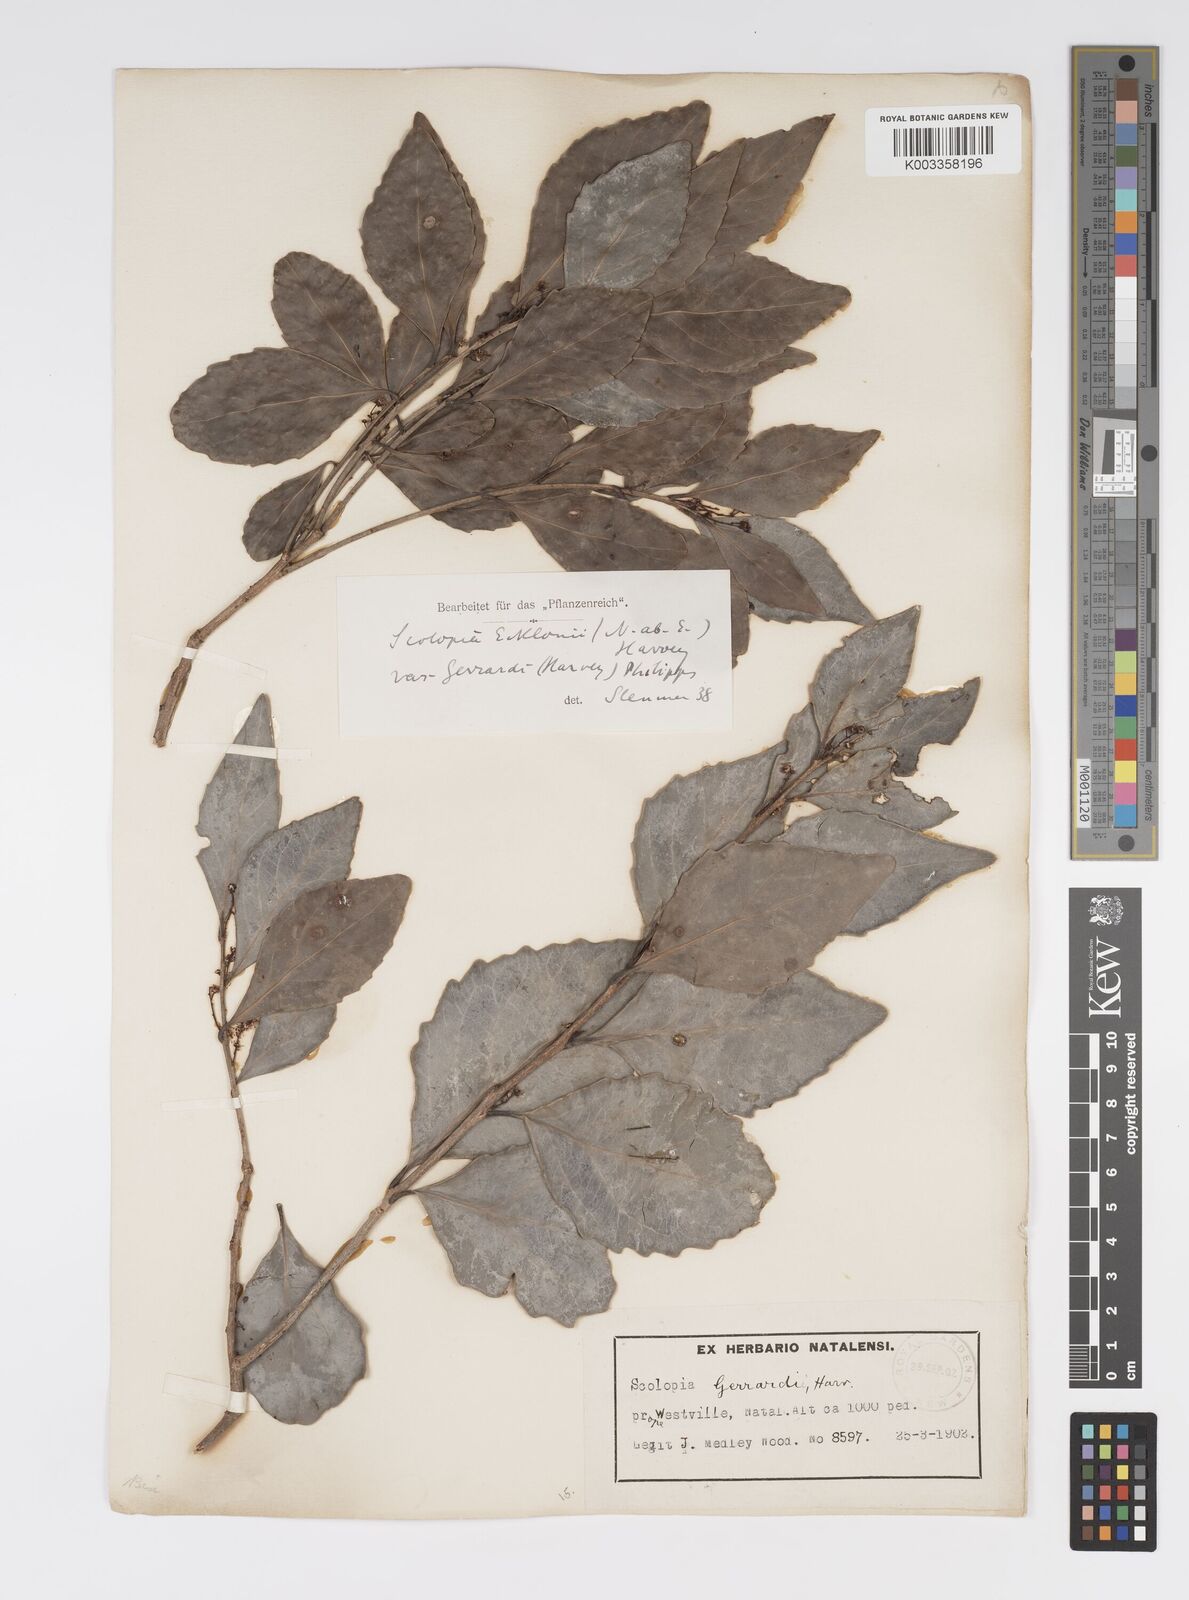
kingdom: Plantae
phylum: Tracheophyta
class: Magnoliopsida
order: Malpighiales
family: Salicaceae
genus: Scolopia
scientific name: Scolopia zeyheri
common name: Thorn pear
